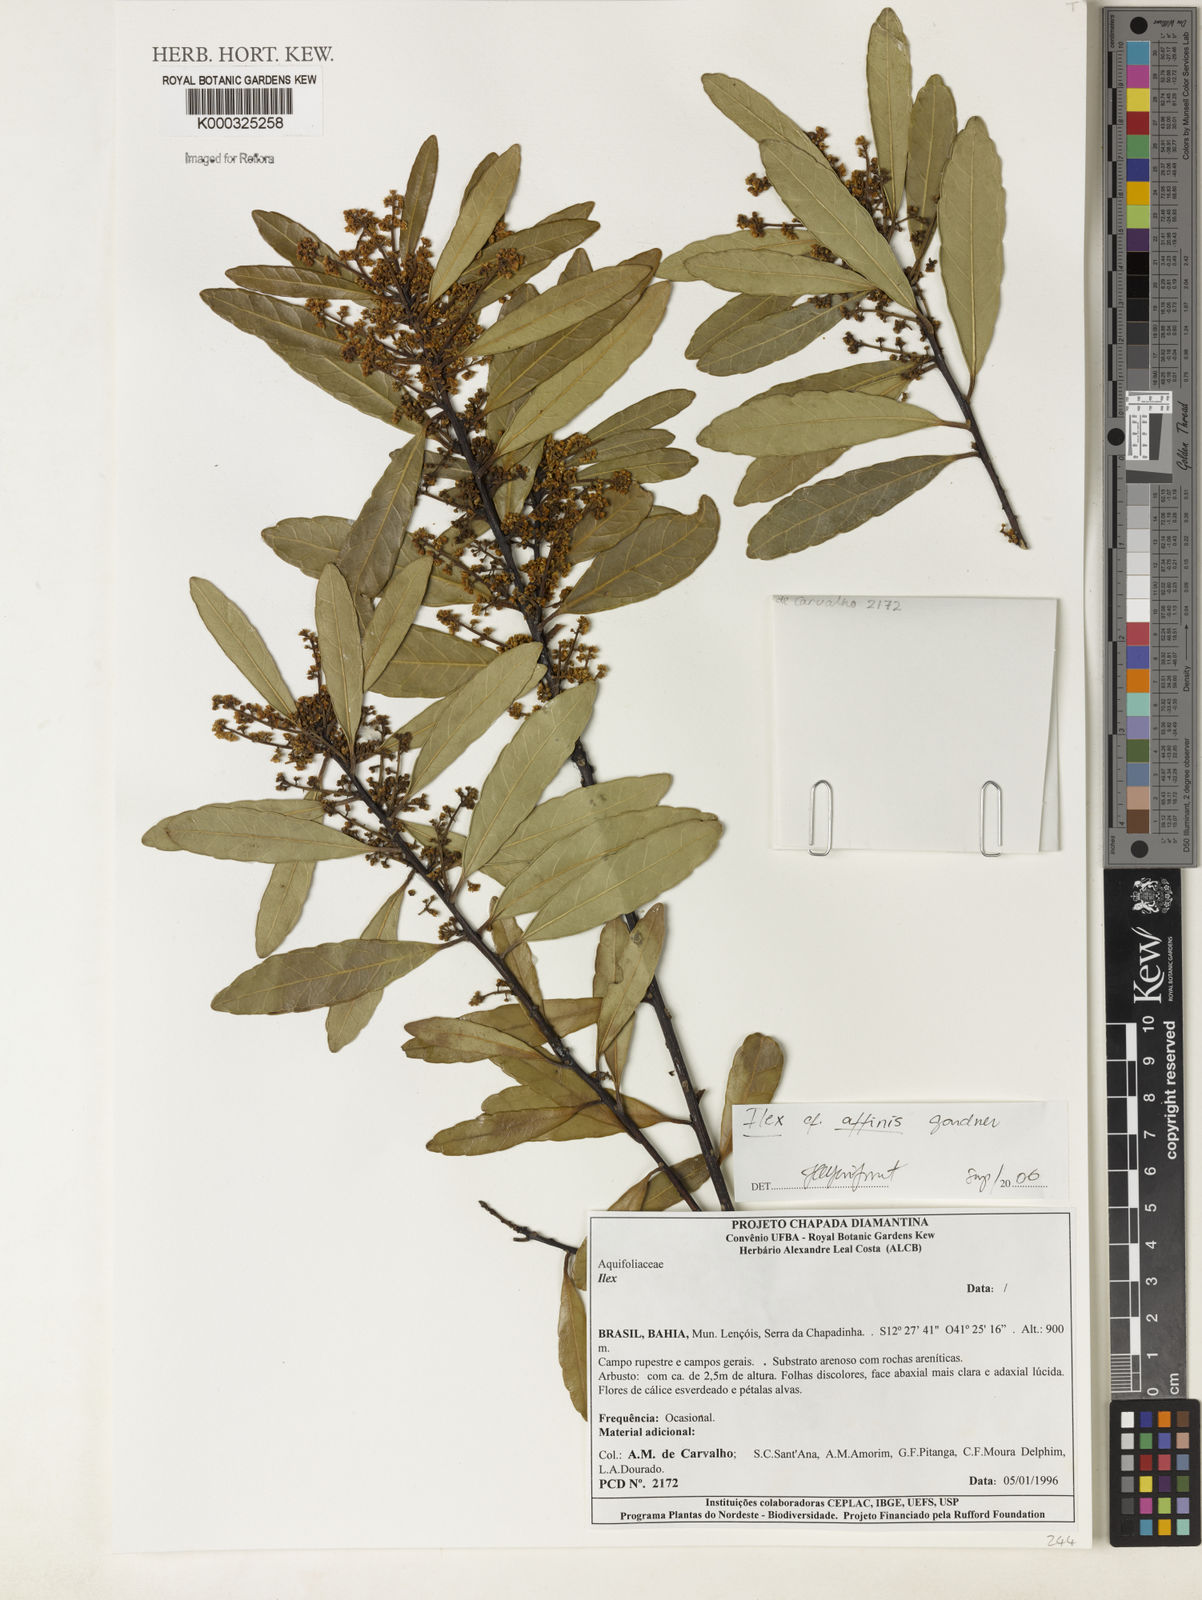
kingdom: Plantae
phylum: Tracheophyta
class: Magnoliopsida
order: Aquifoliales
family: Aquifoliaceae
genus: Ilex
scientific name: Ilex affinis
